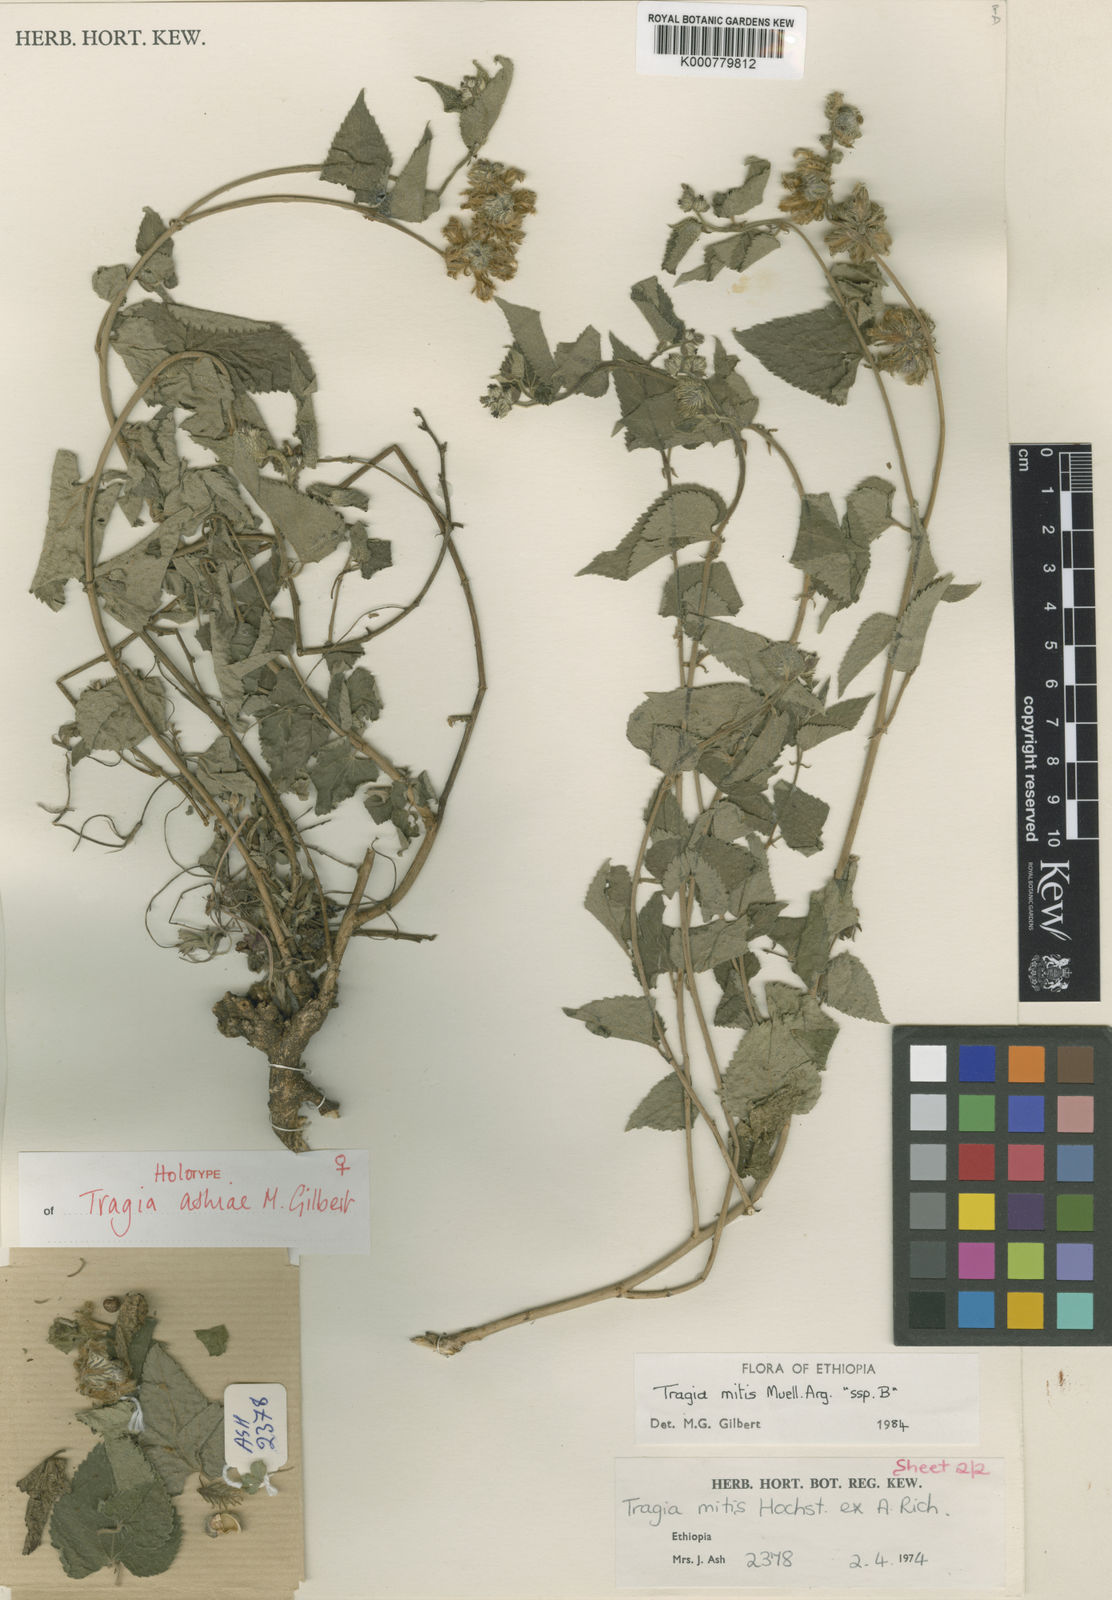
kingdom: Plantae
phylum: Tracheophyta
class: Magnoliopsida
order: Malpighiales
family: Euphorbiaceae
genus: Tragia
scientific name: Tragia ashiae
